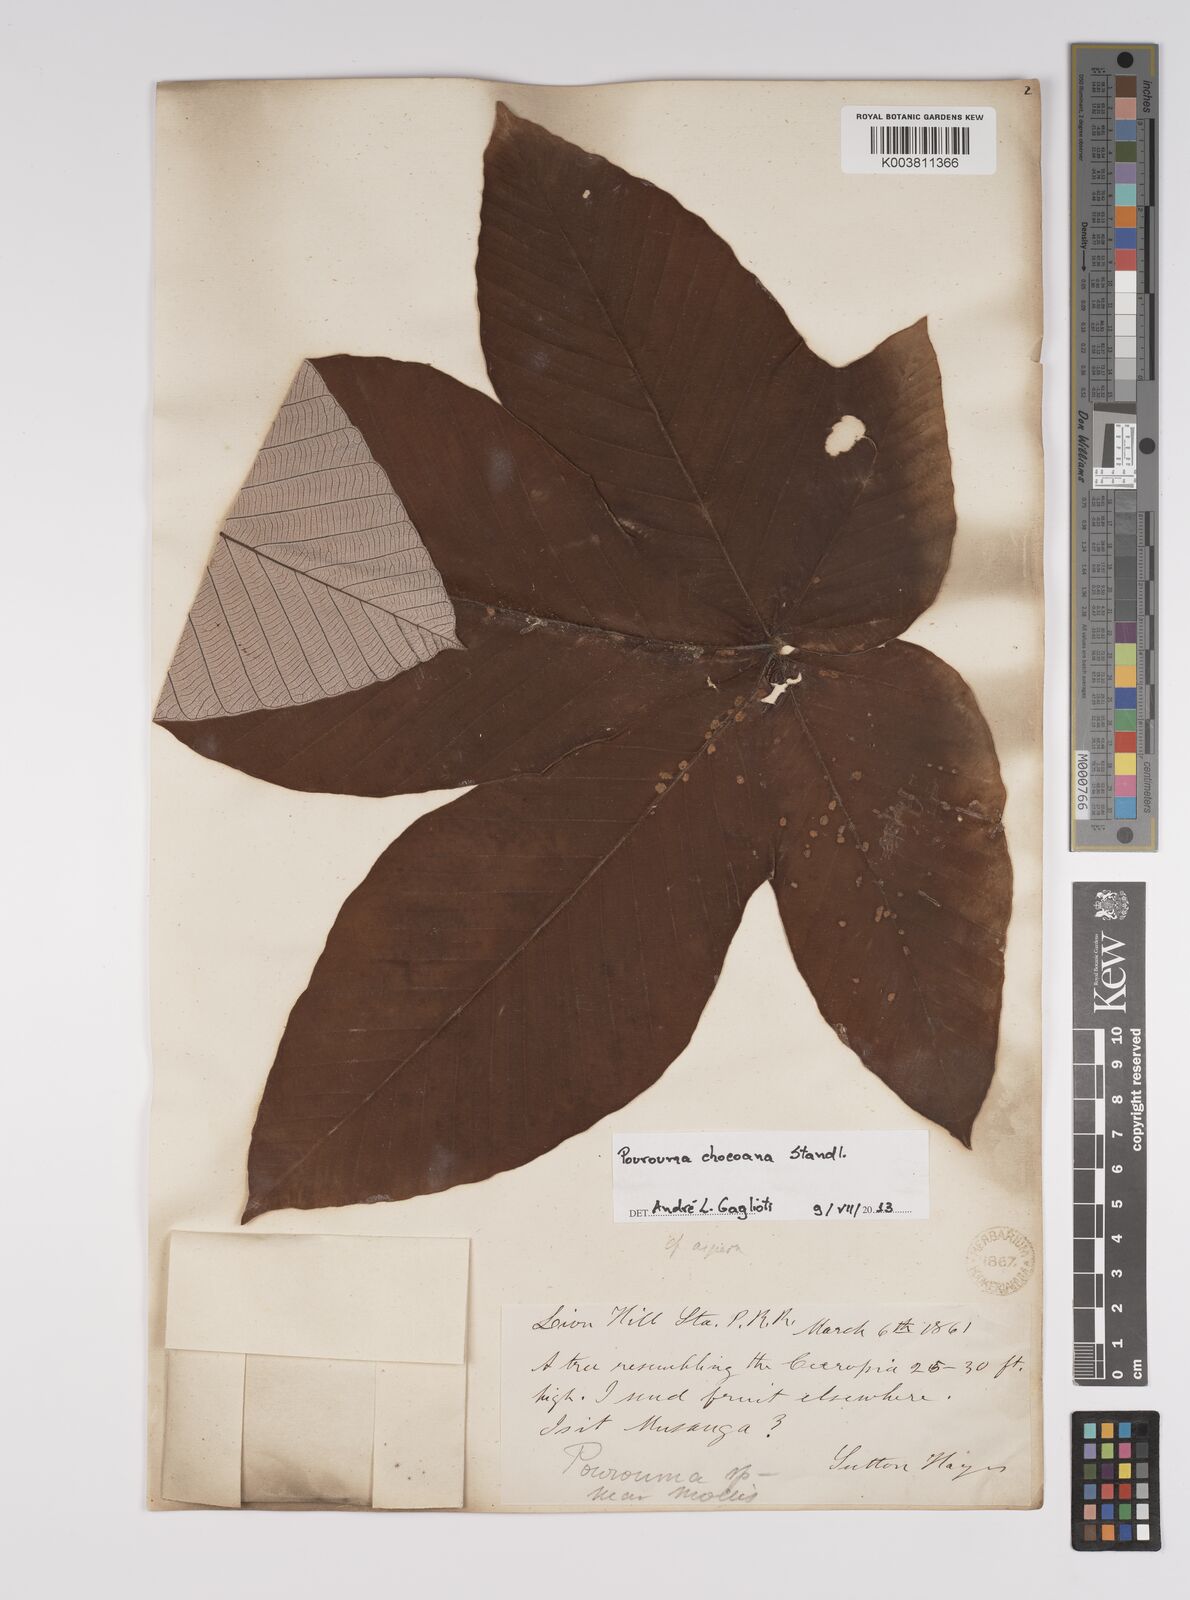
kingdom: Plantae
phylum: Tracheophyta
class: Magnoliopsida
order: Rosales
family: Urticaceae
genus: Pourouma
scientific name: Pourouma bicolor
